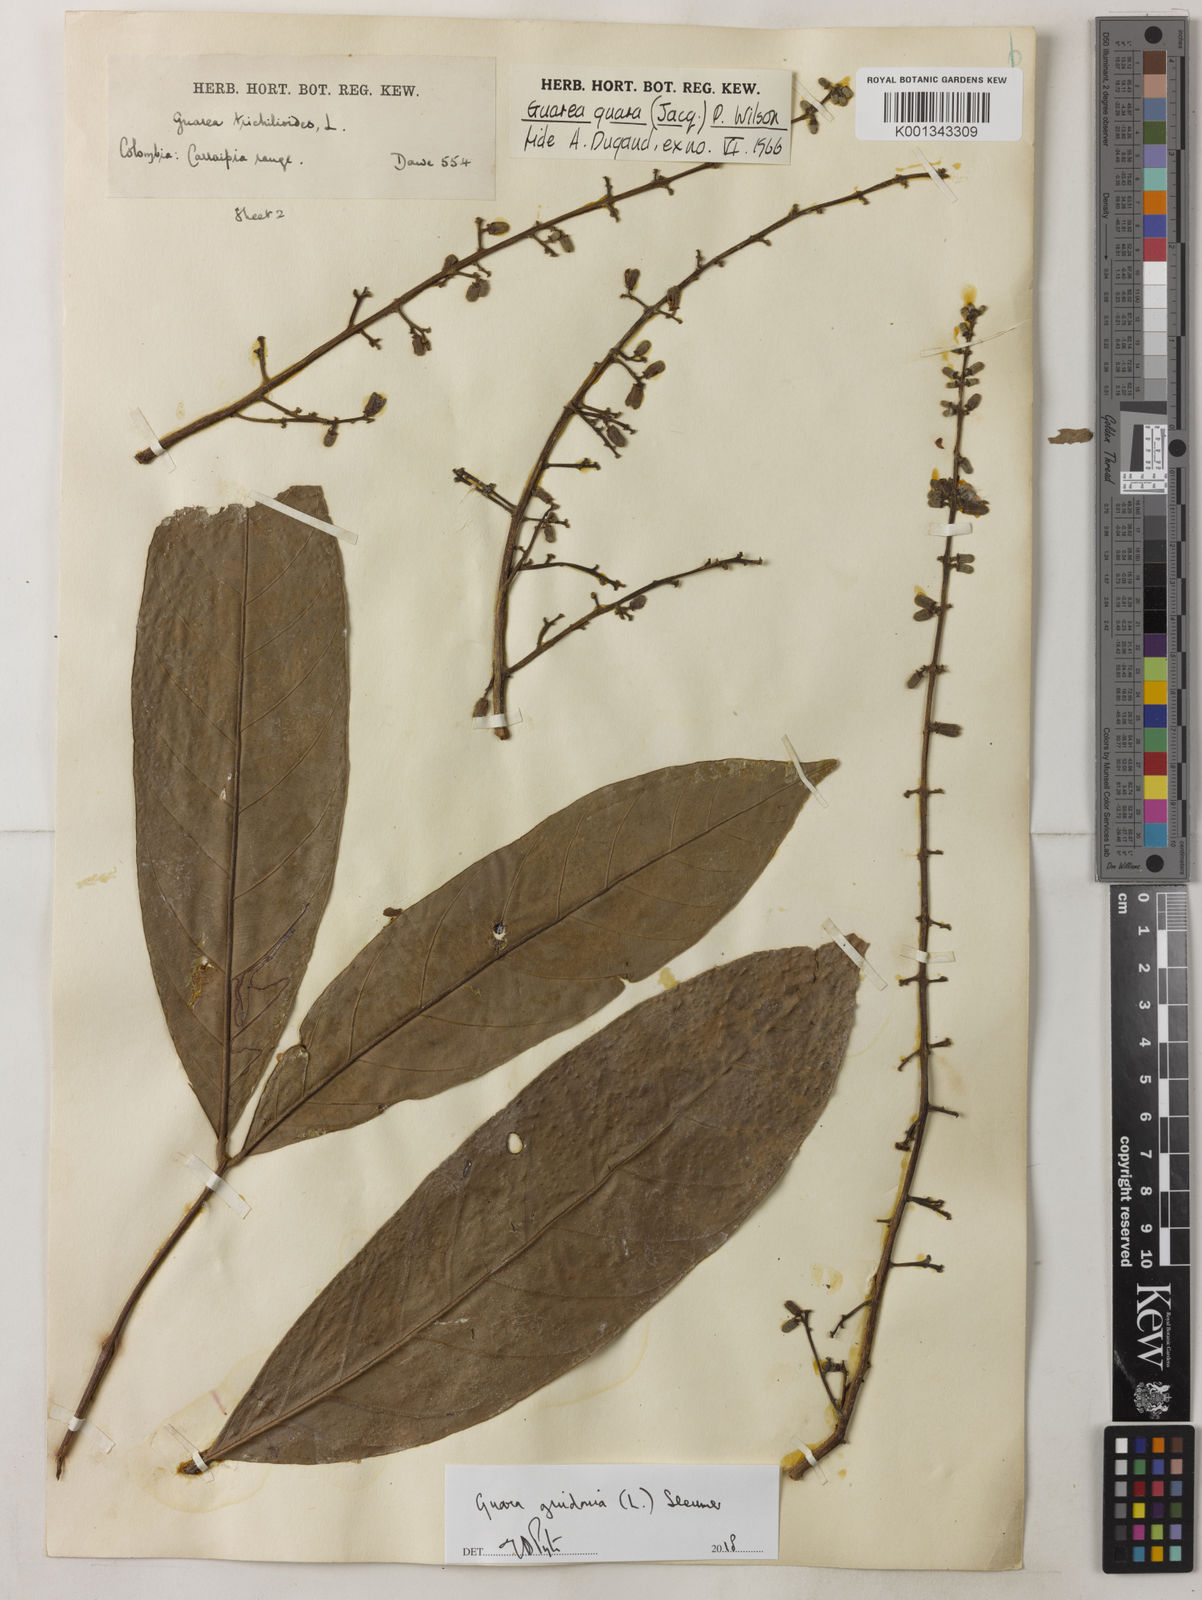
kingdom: Plantae
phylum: Tracheophyta
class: Magnoliopsida
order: Sapindales
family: Meliaceae
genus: Guarea
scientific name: Guarea guidonia
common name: American muskwood
